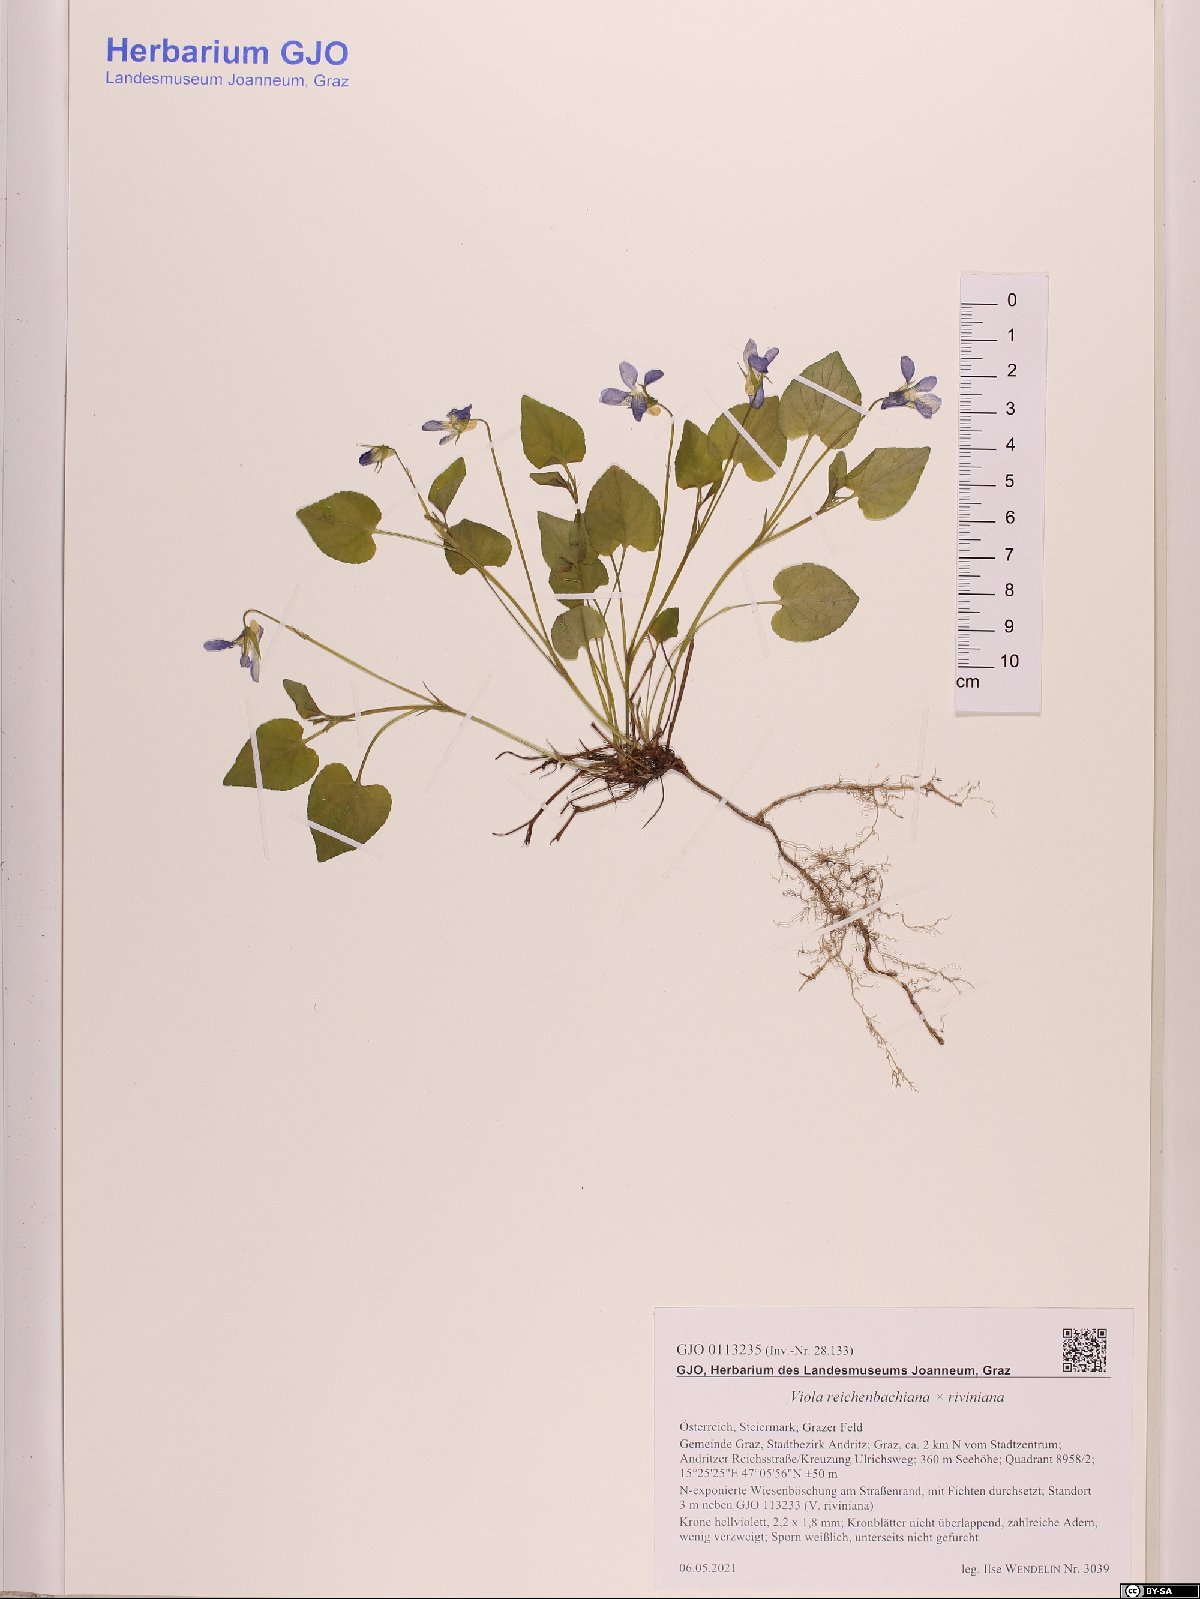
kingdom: Plantae
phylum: Tracheophyta
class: Magnoliopsida
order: Malpighiales
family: Violaceae
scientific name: Violaceae
